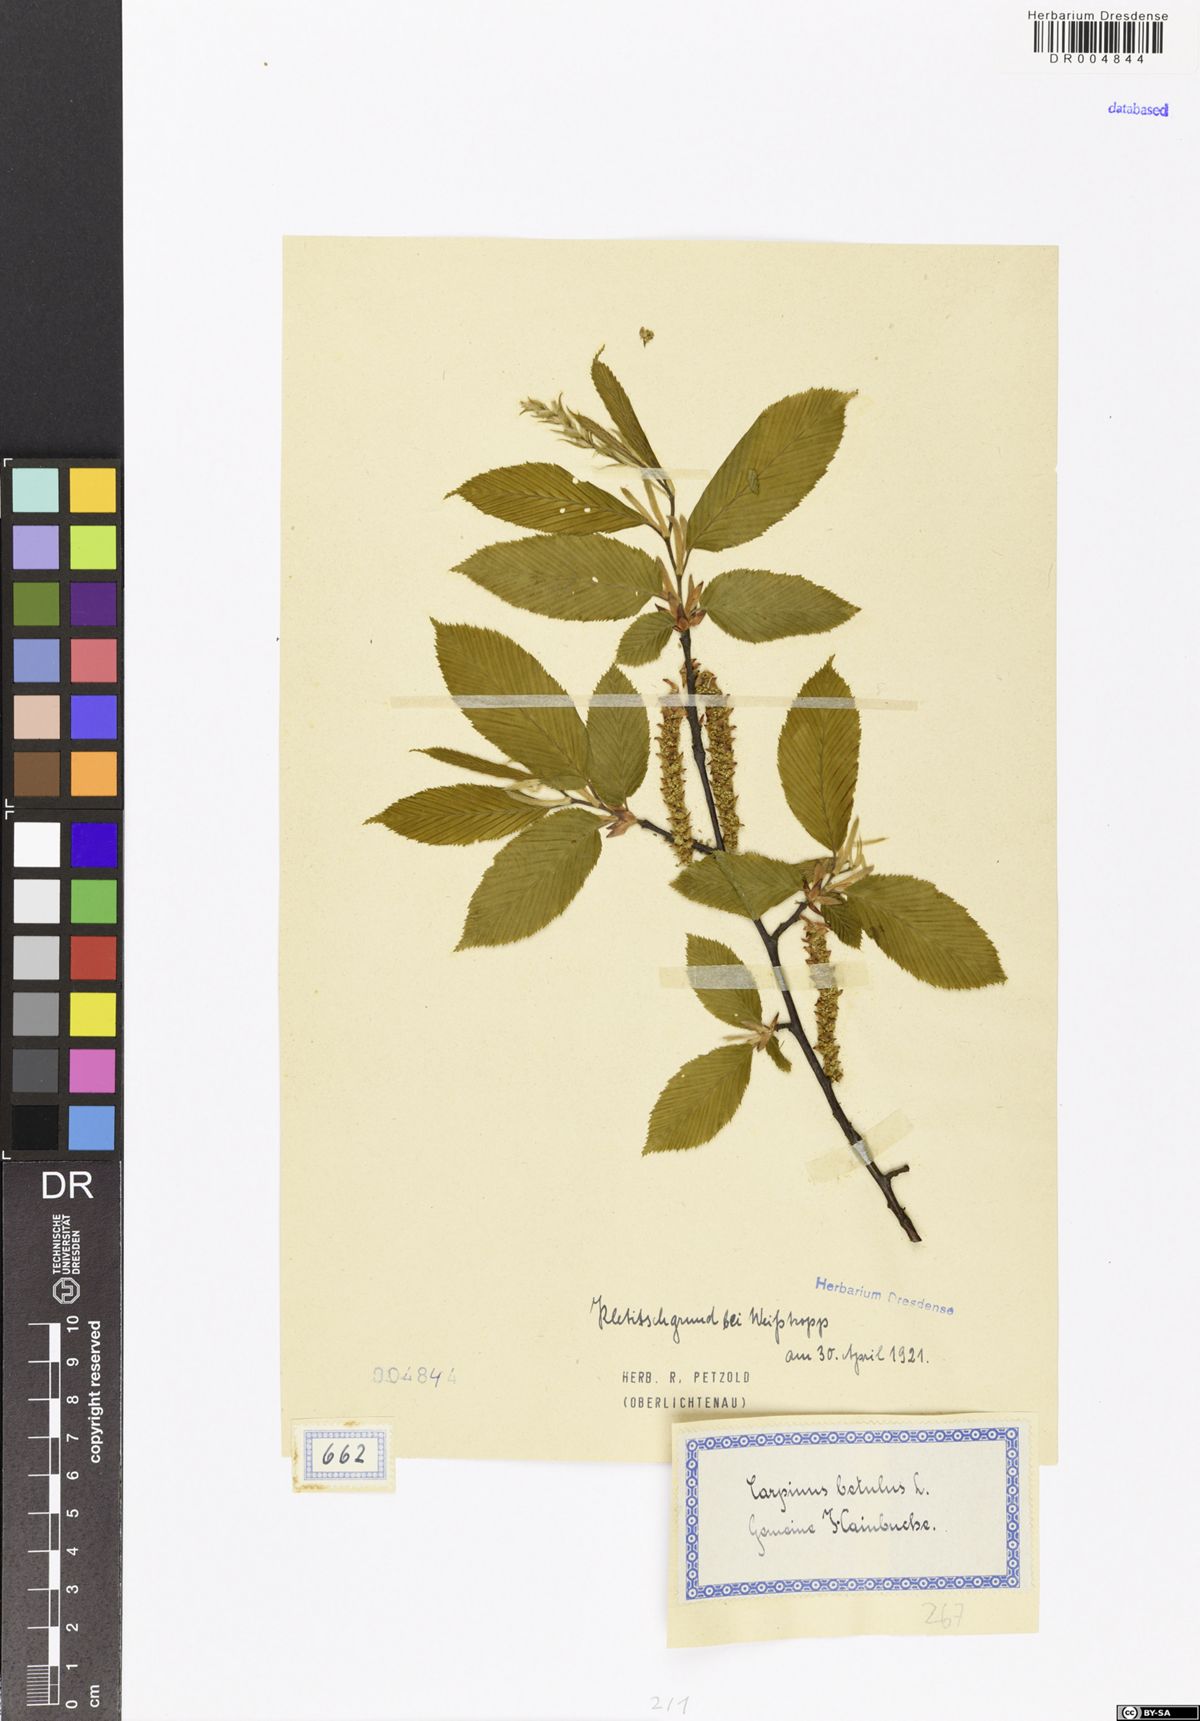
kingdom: Plantae
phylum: Tracheophyta
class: Magnoliopsida
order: Fagales
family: Betulaceae
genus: Carpinus
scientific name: Carpinus betulus
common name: Hornbeam
